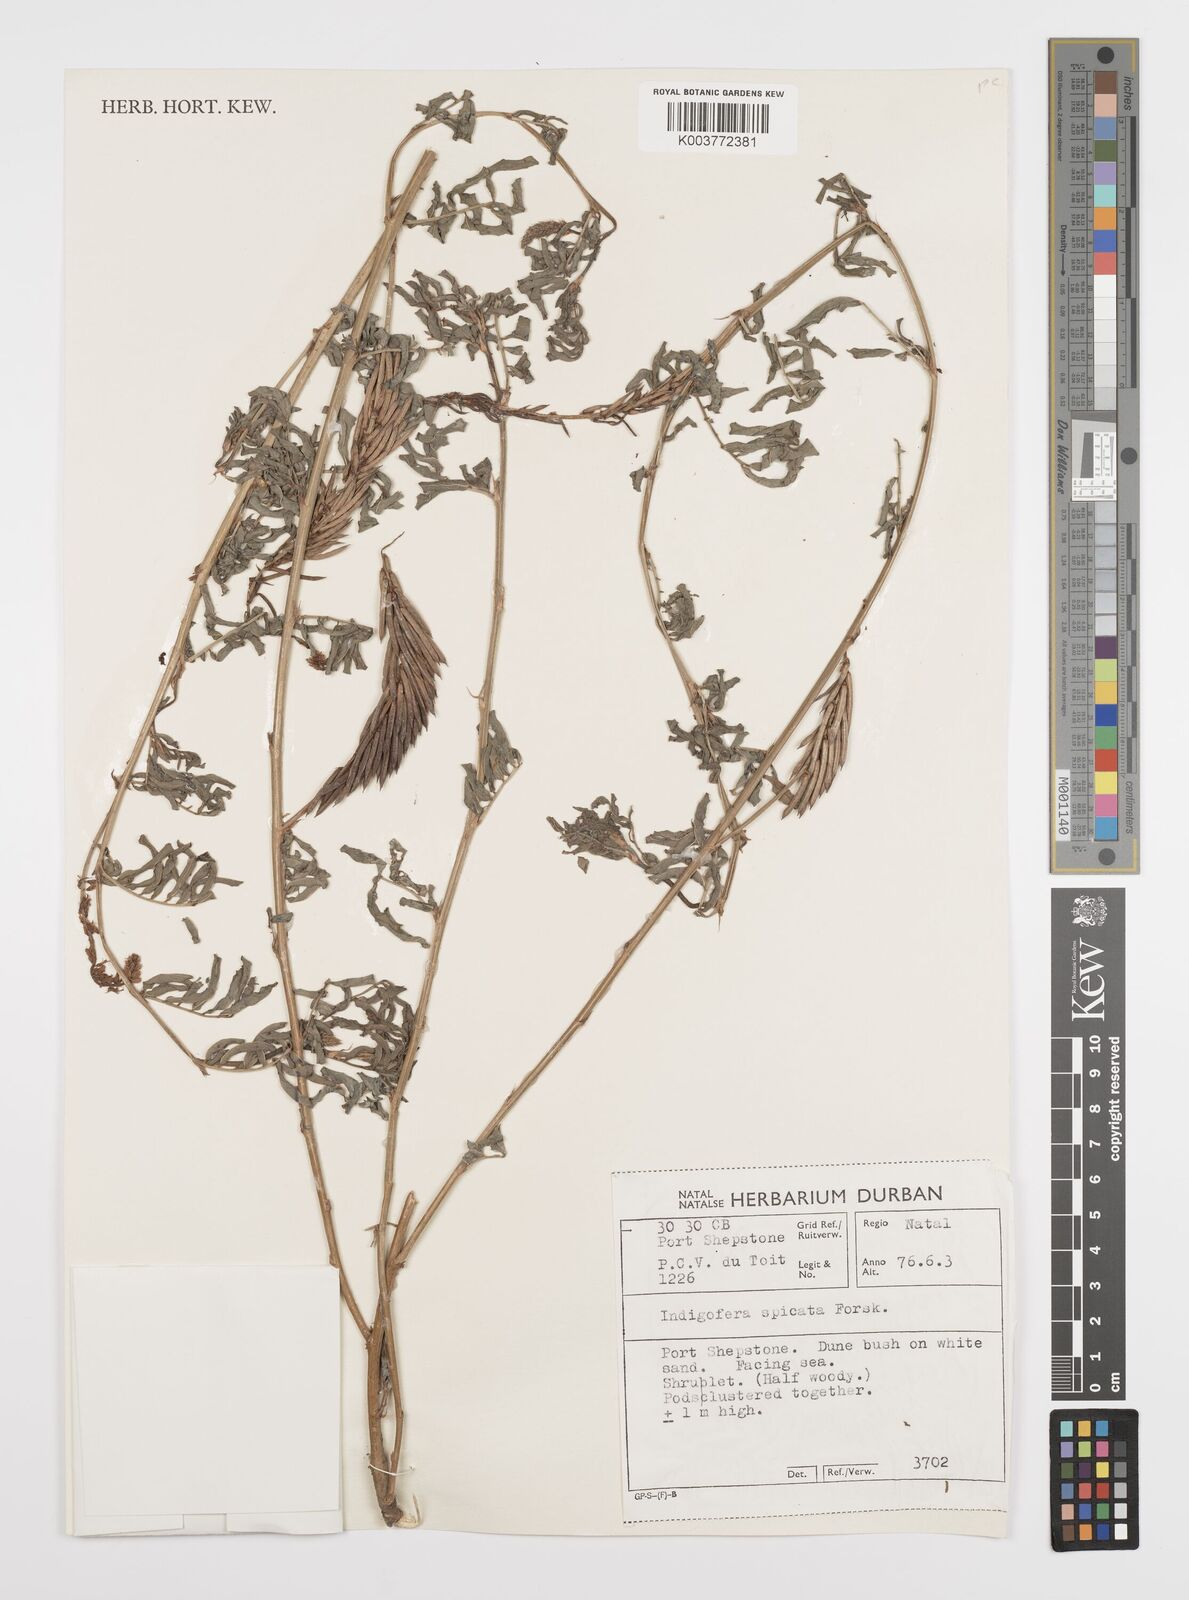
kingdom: Plantae
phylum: Tracheophyta
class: Magnoliopsida
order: Fabales
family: Fabaceae
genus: Indigofera
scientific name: Indigofera hendecaphylla
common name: Trailing indigo
